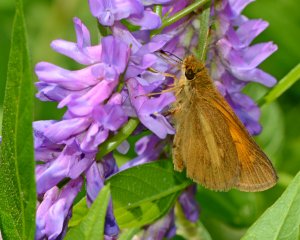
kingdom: Animalia
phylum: Arthropoda
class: Insecta
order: Lepidoptera
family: Hesperiidae
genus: Poanes
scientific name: Poanes viator
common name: Broad-winged Skipper
